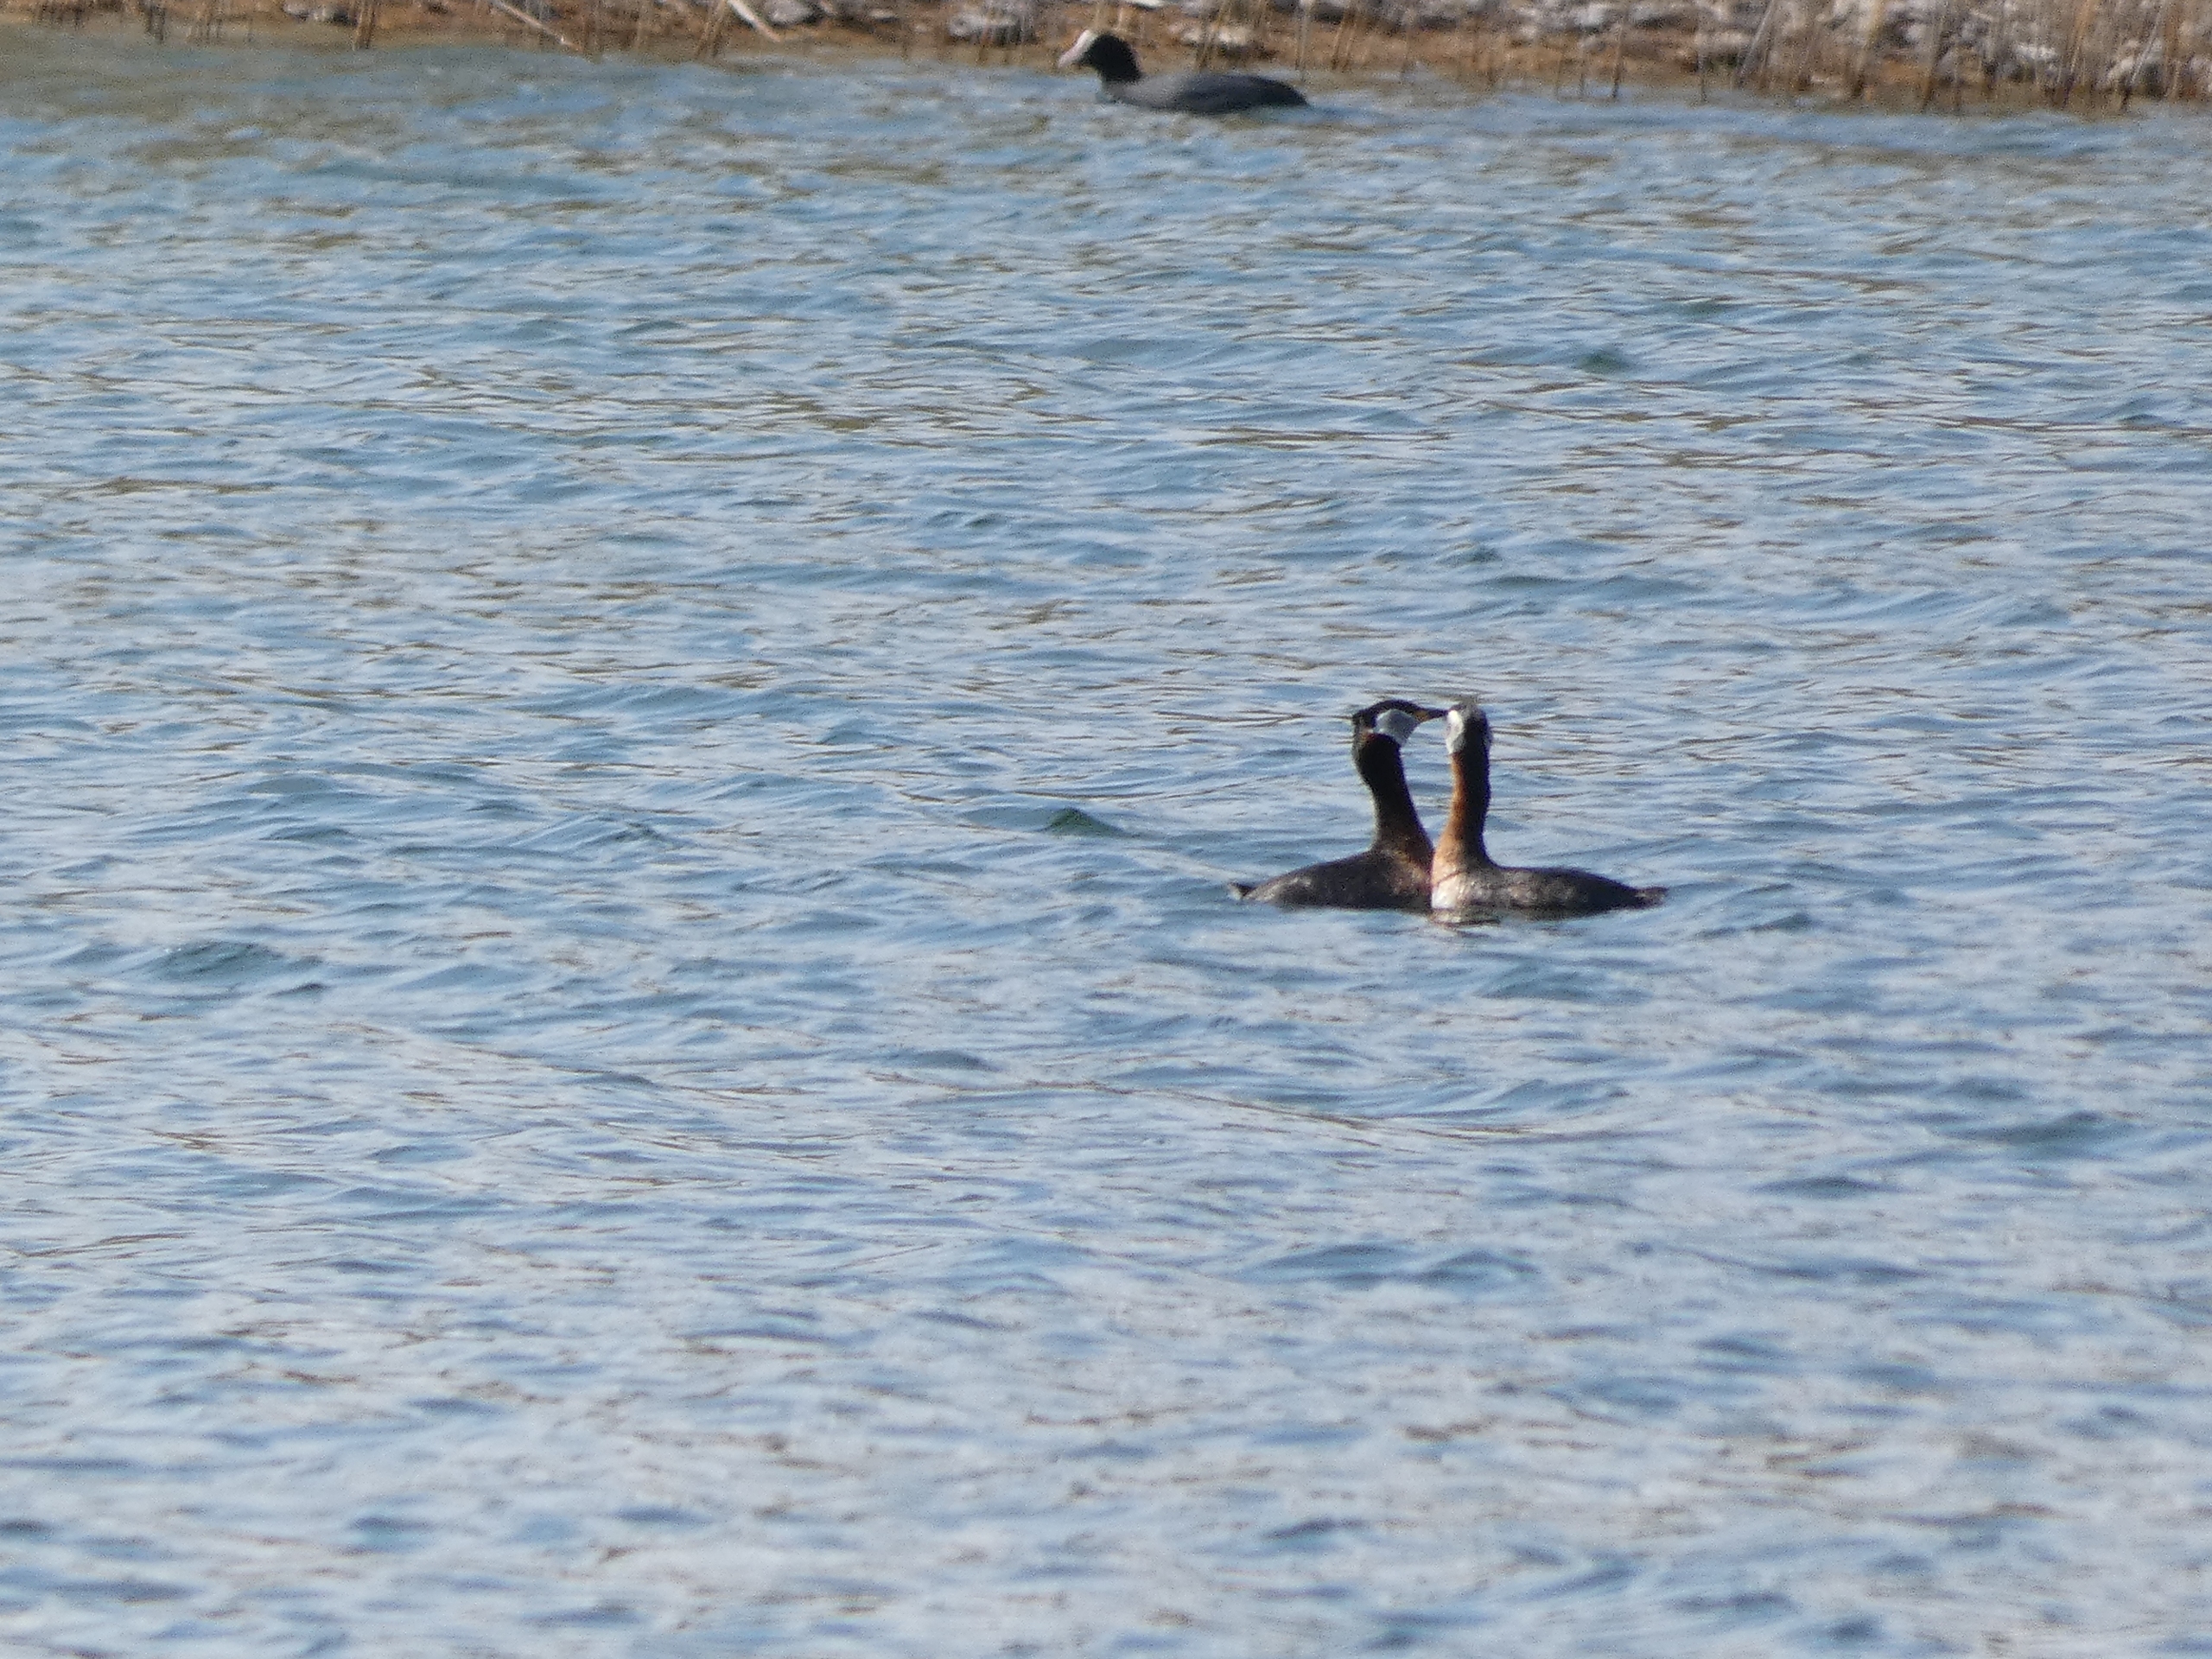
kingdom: Animalia
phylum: Chordata
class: Aves
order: Podicipediformes
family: Podicipedidae
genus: Podiceps
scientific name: Podiceps grisegena
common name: Gråstrubet lappedykker
